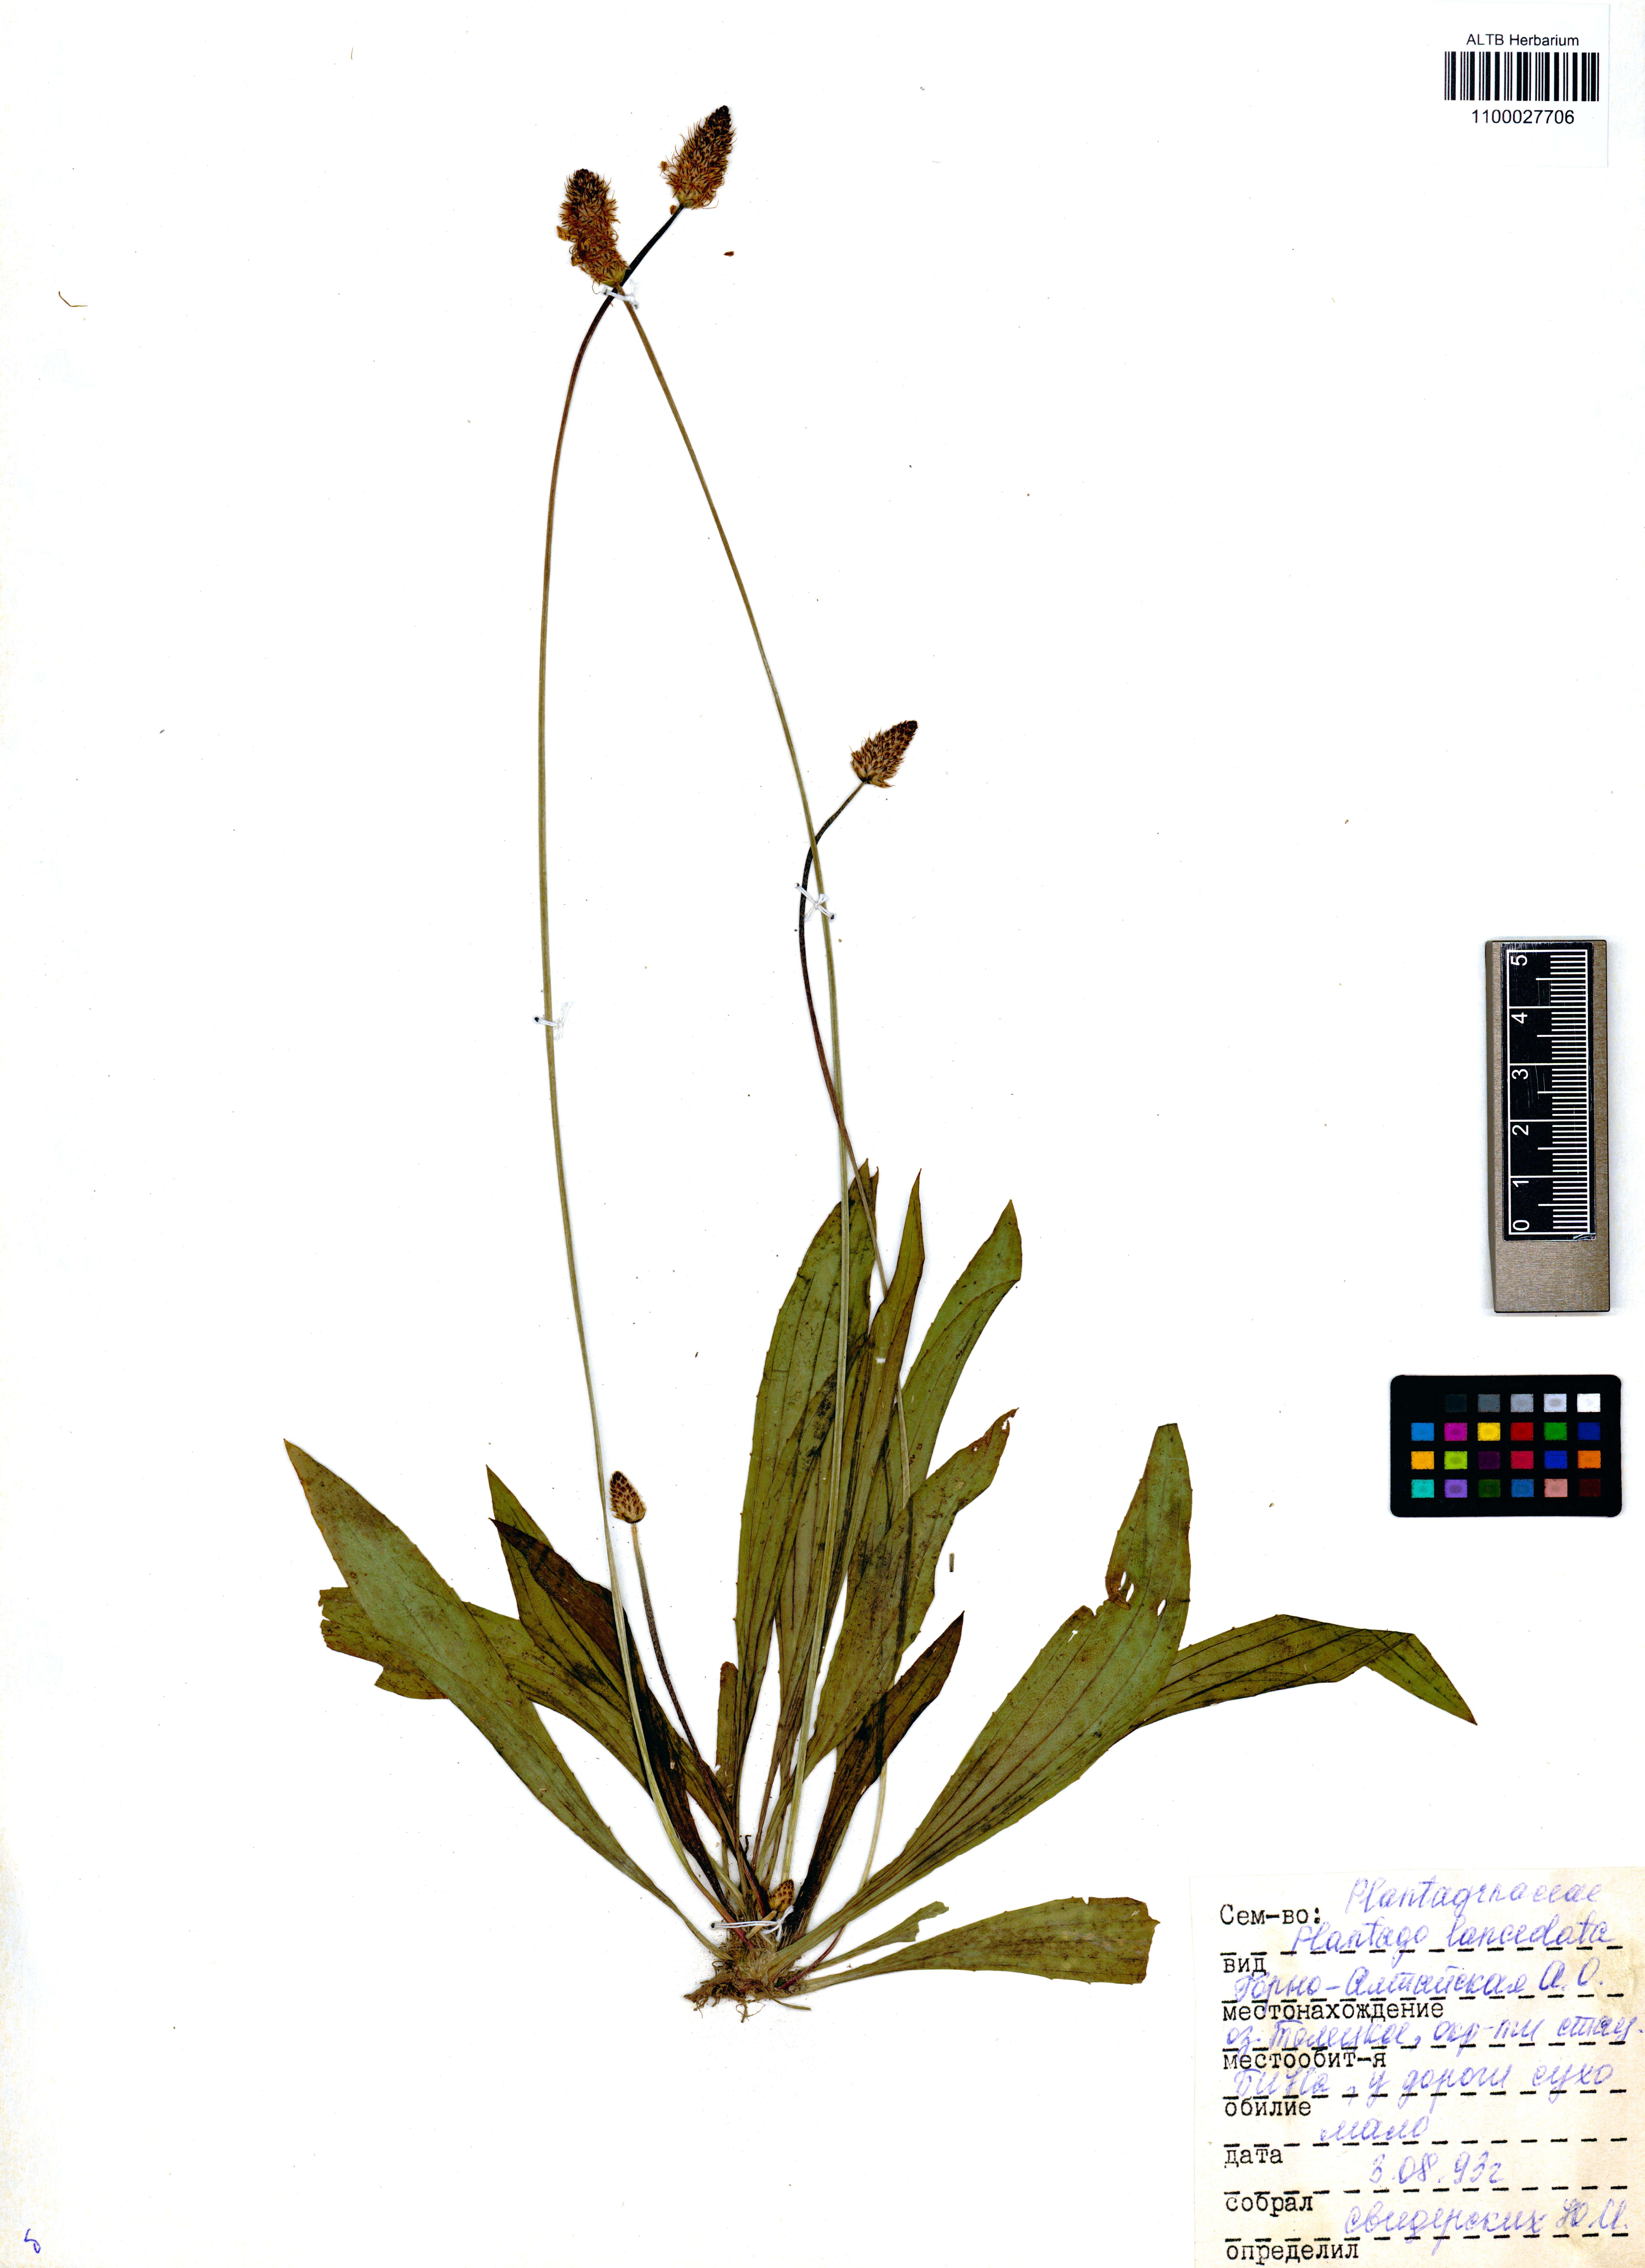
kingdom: Plantae
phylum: Tracheophyta
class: Magnoliopsida
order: Lamiales
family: Plantaginaceae
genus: Plantago
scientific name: Plantago lanceolata
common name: Ribwort plantain
